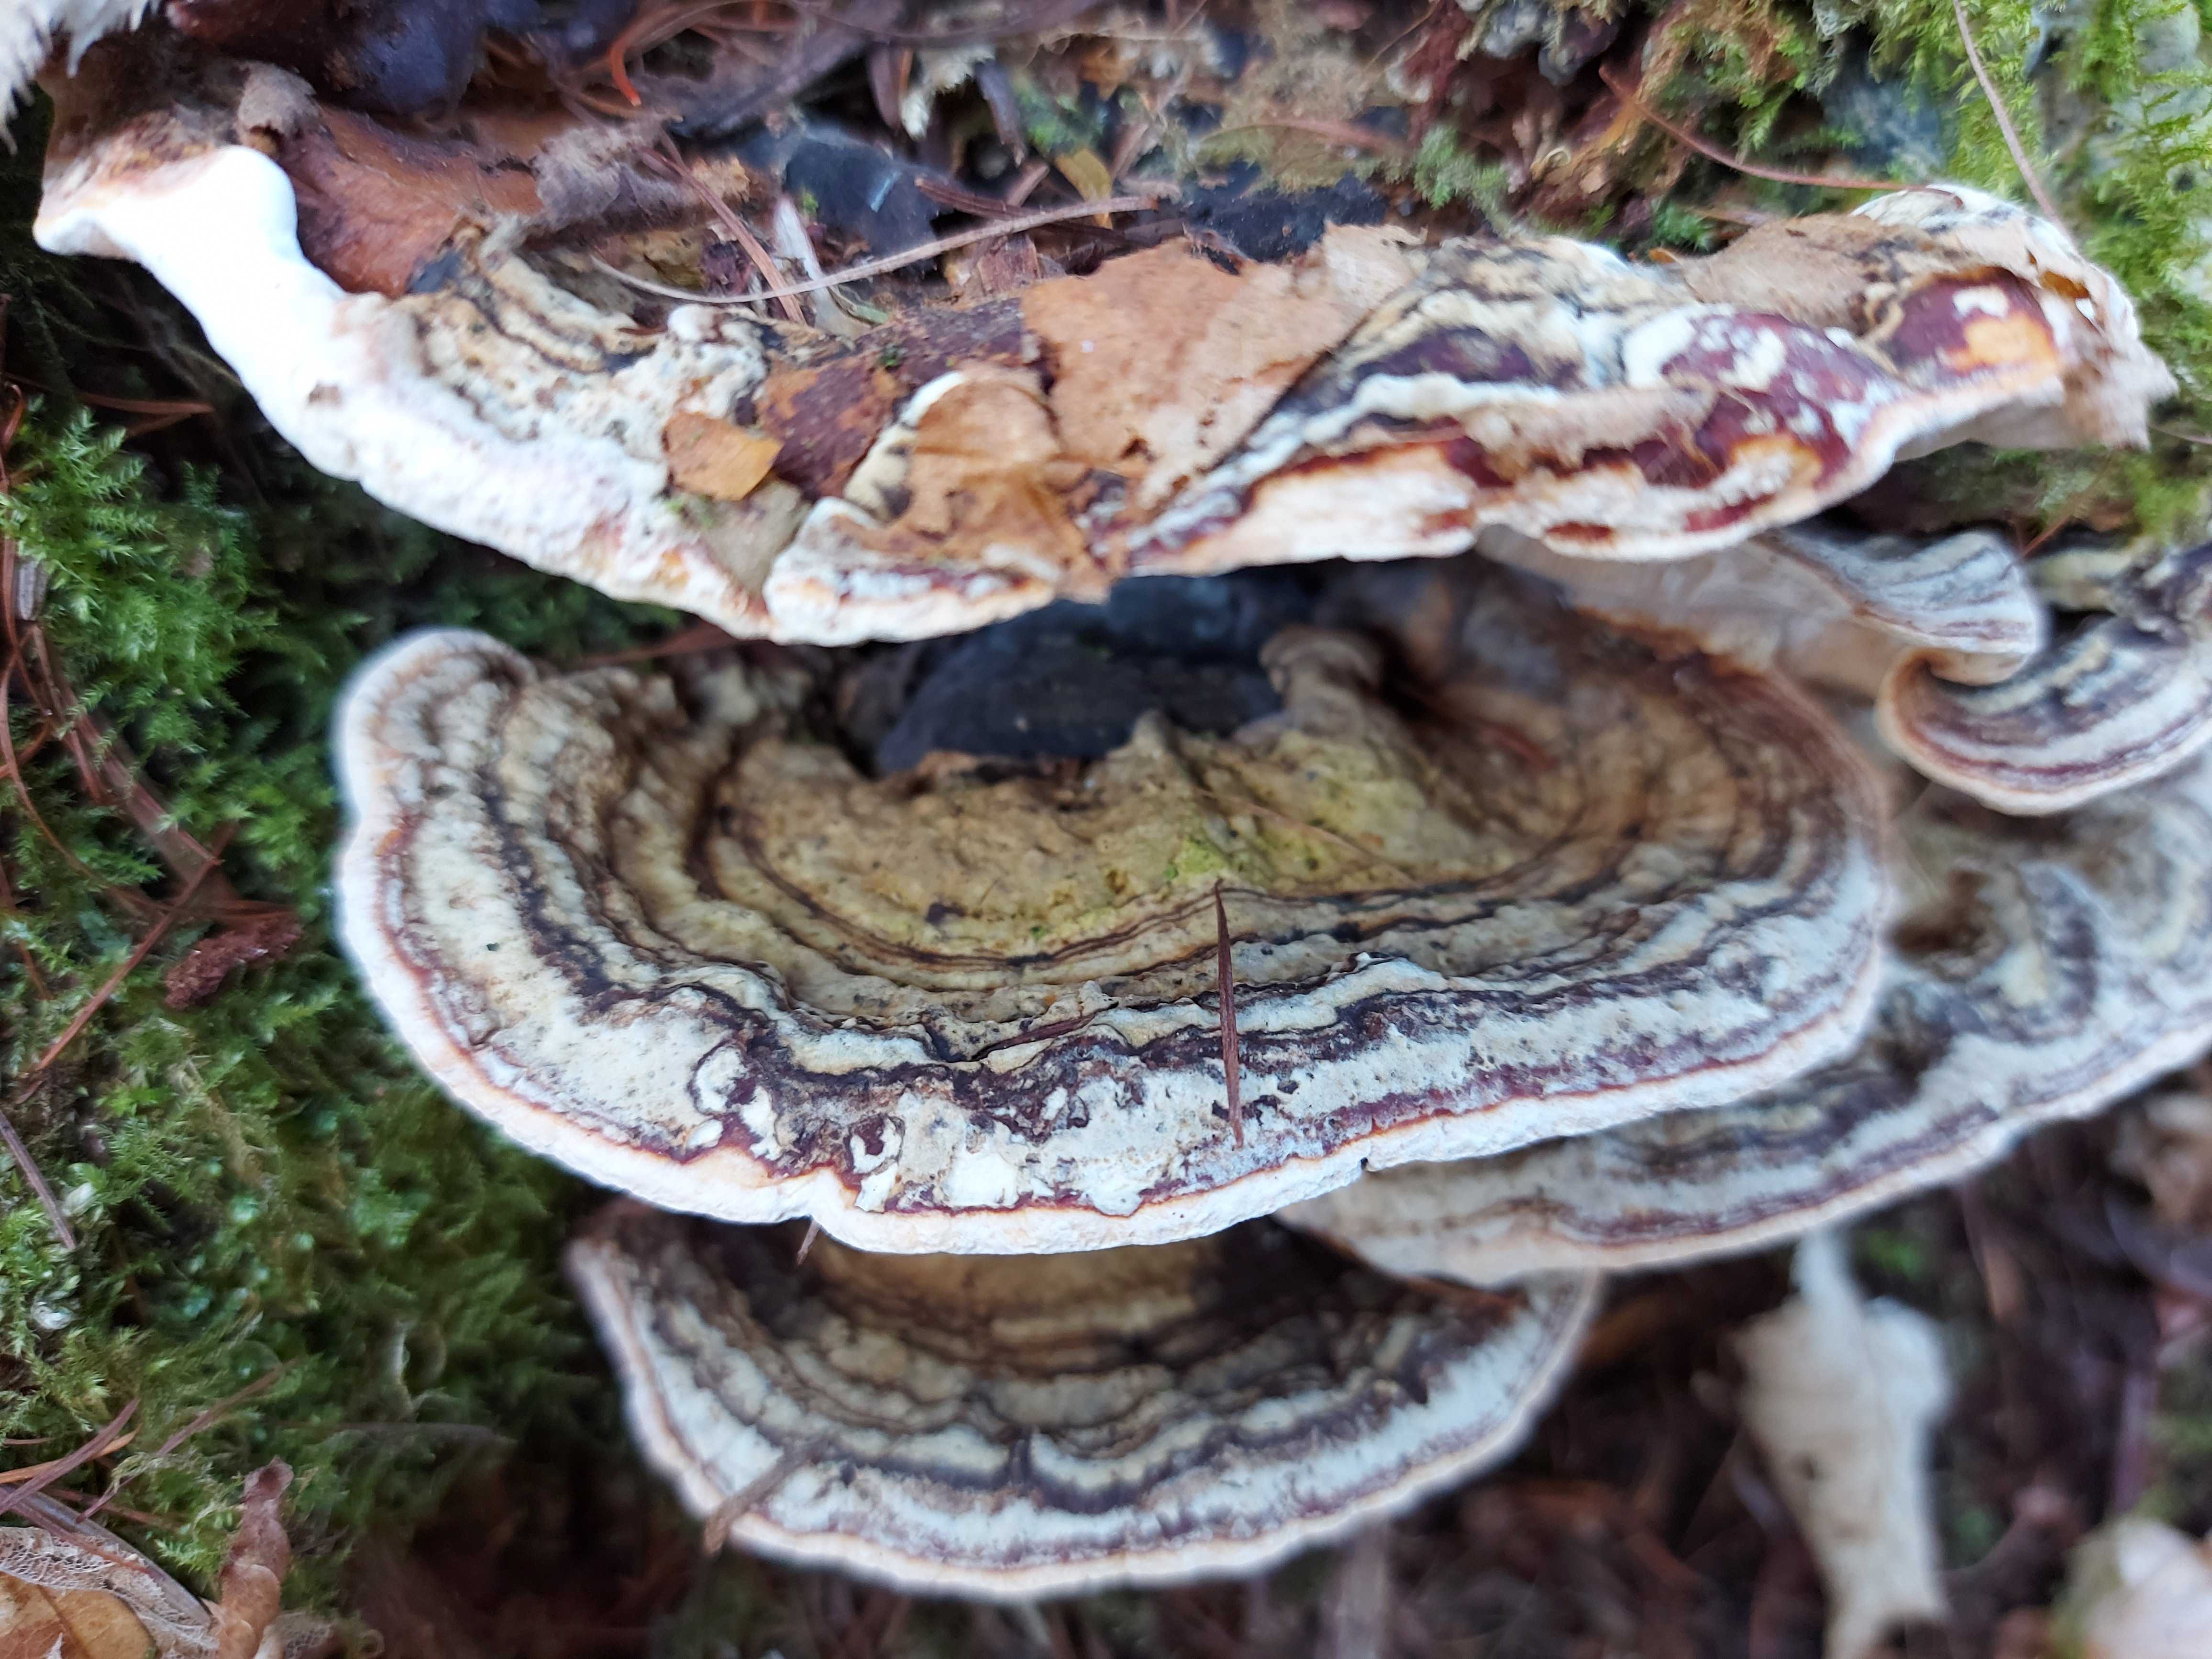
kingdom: Fungi
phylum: Basidiomycota
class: Agaricomycetes
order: Russulales
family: Bondarzewiaceae
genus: Heterobasidion
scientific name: Heterobasidion
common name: rodfordærver
